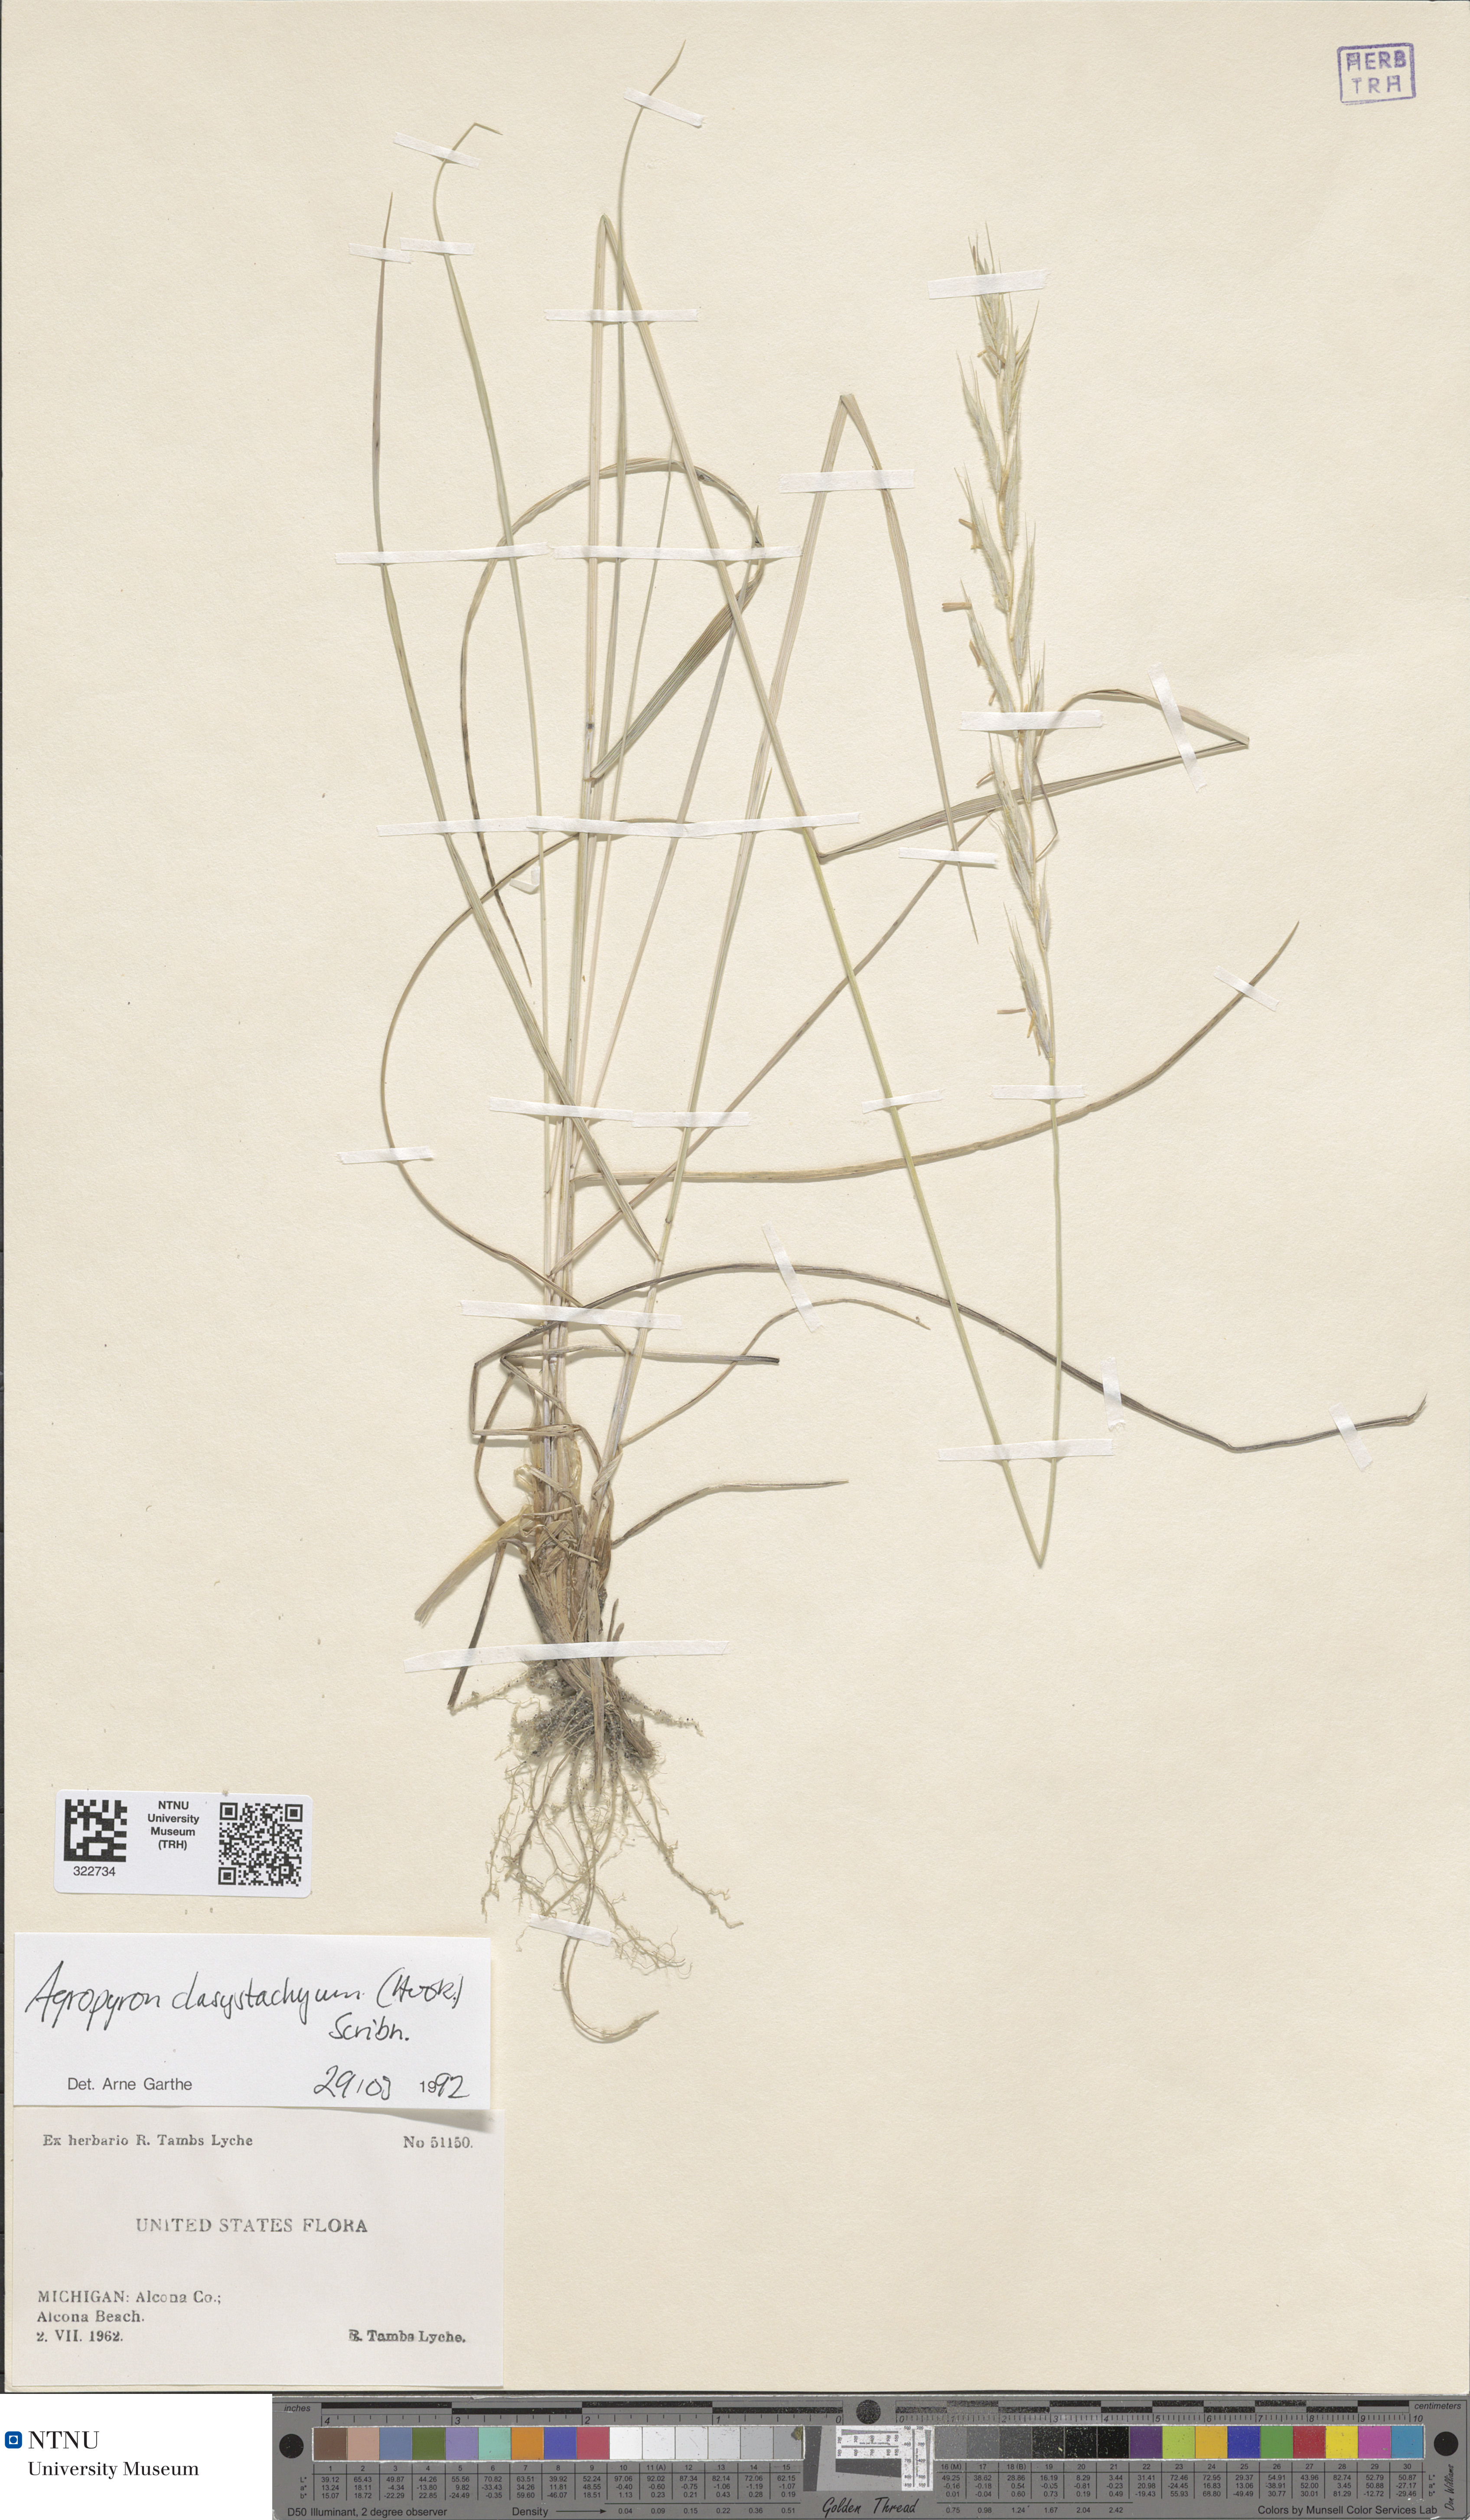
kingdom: Plantae
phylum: Tracheophyta
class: Liliopsida
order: Poales
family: Poaceae
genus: Elymus
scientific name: Elymus lanceolatus
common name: Thick-spike wheatgrass
